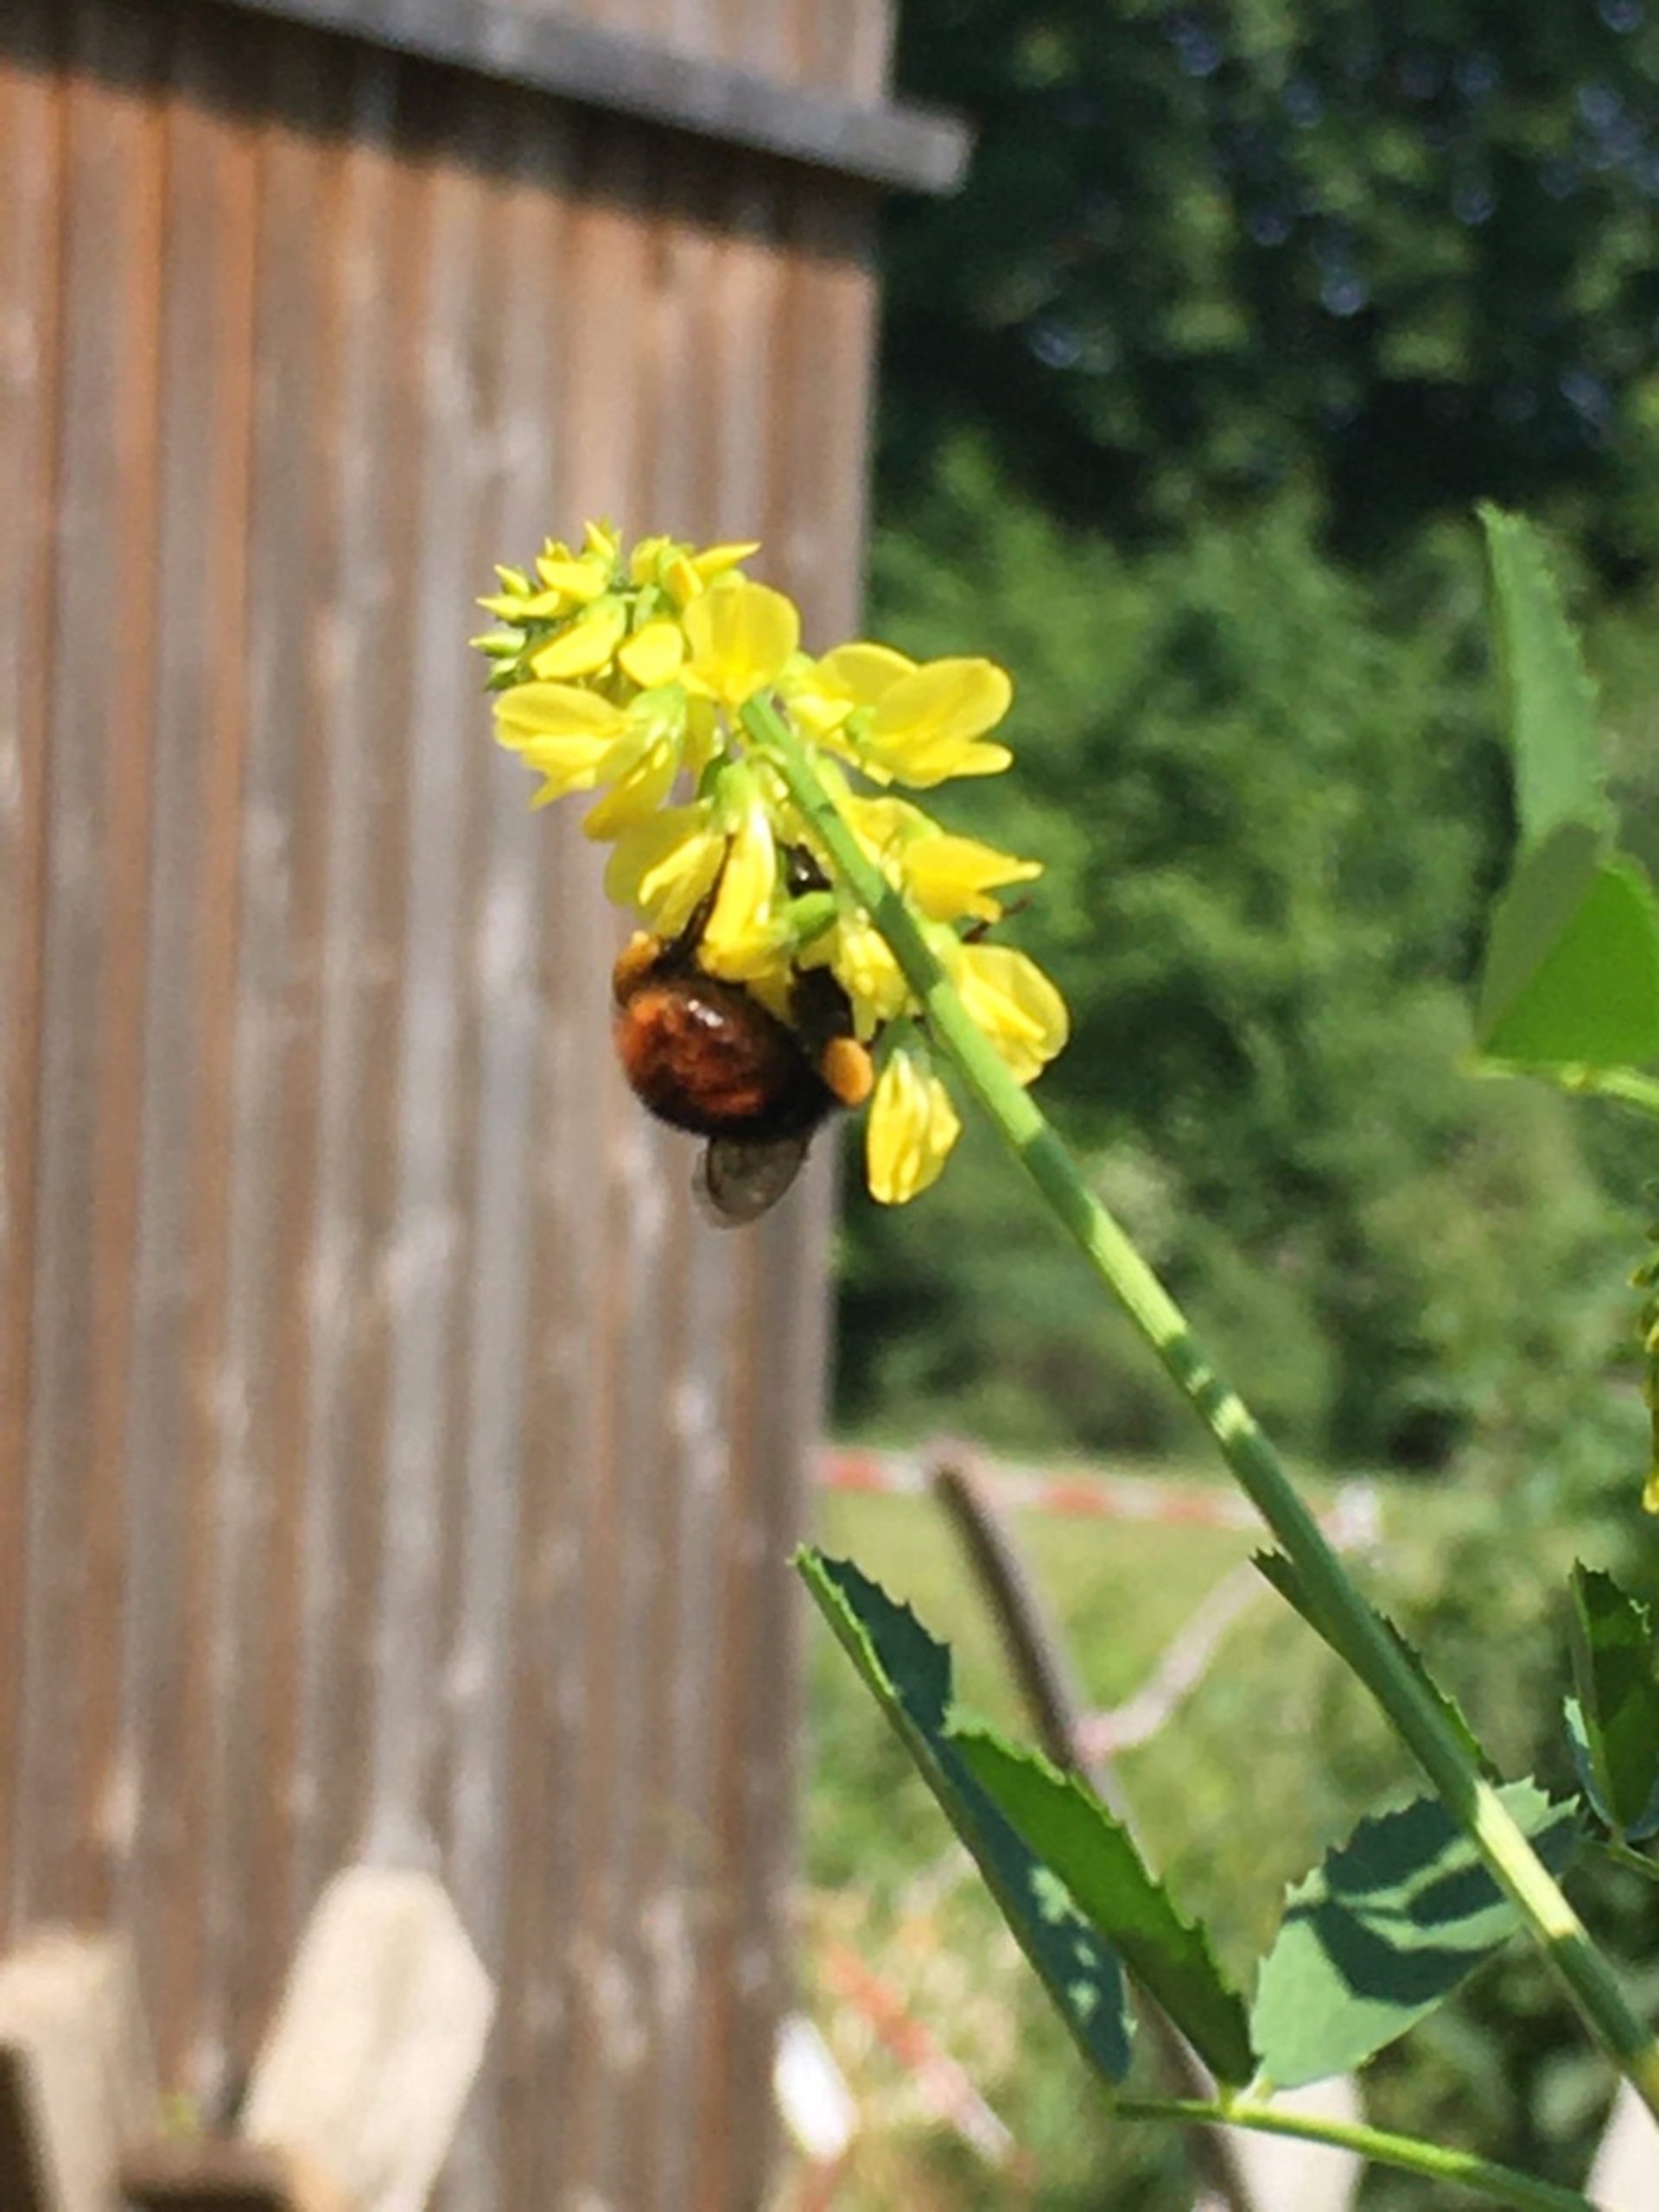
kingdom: Animalia
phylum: Arthropoda
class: Insecta
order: Hymenoptera
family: Apidae
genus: Bombus
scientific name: Bombus
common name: Humlebier
